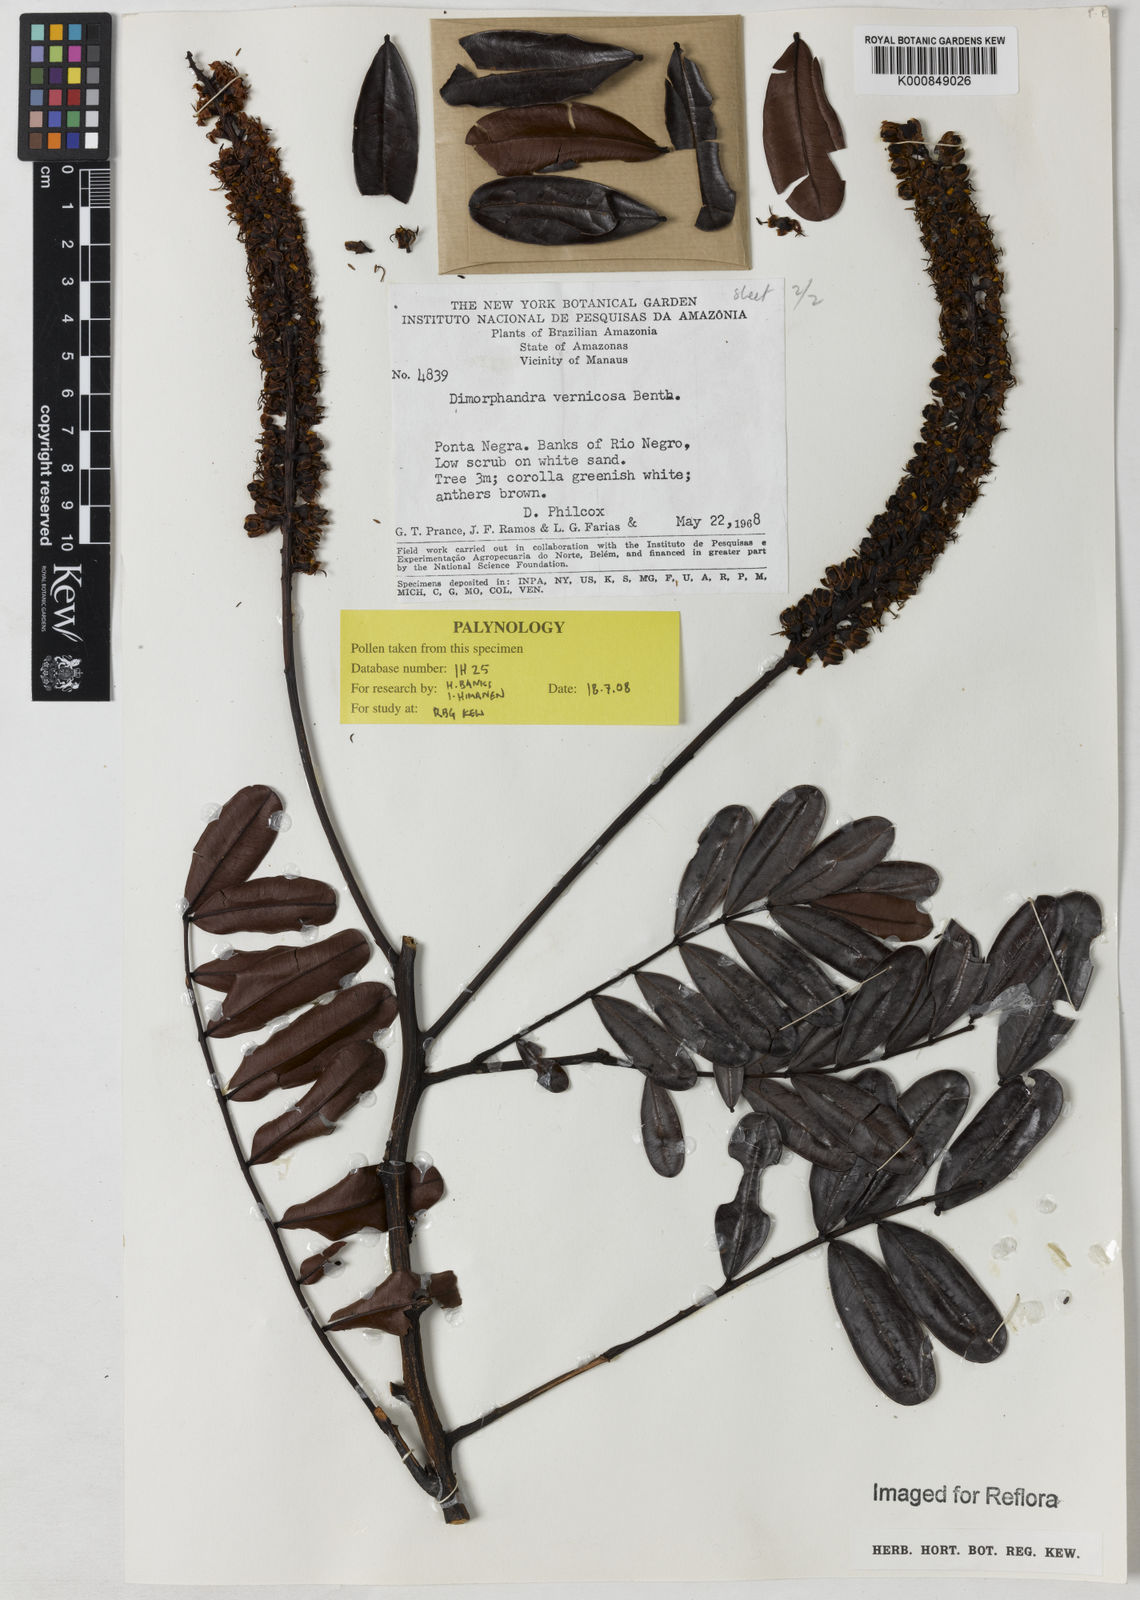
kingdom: Plantae
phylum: Tracheophyta
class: Magnoliopsida
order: Fabales
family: Fabaceae
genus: Dimorphandra
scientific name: Dimorphandra vernicosa
